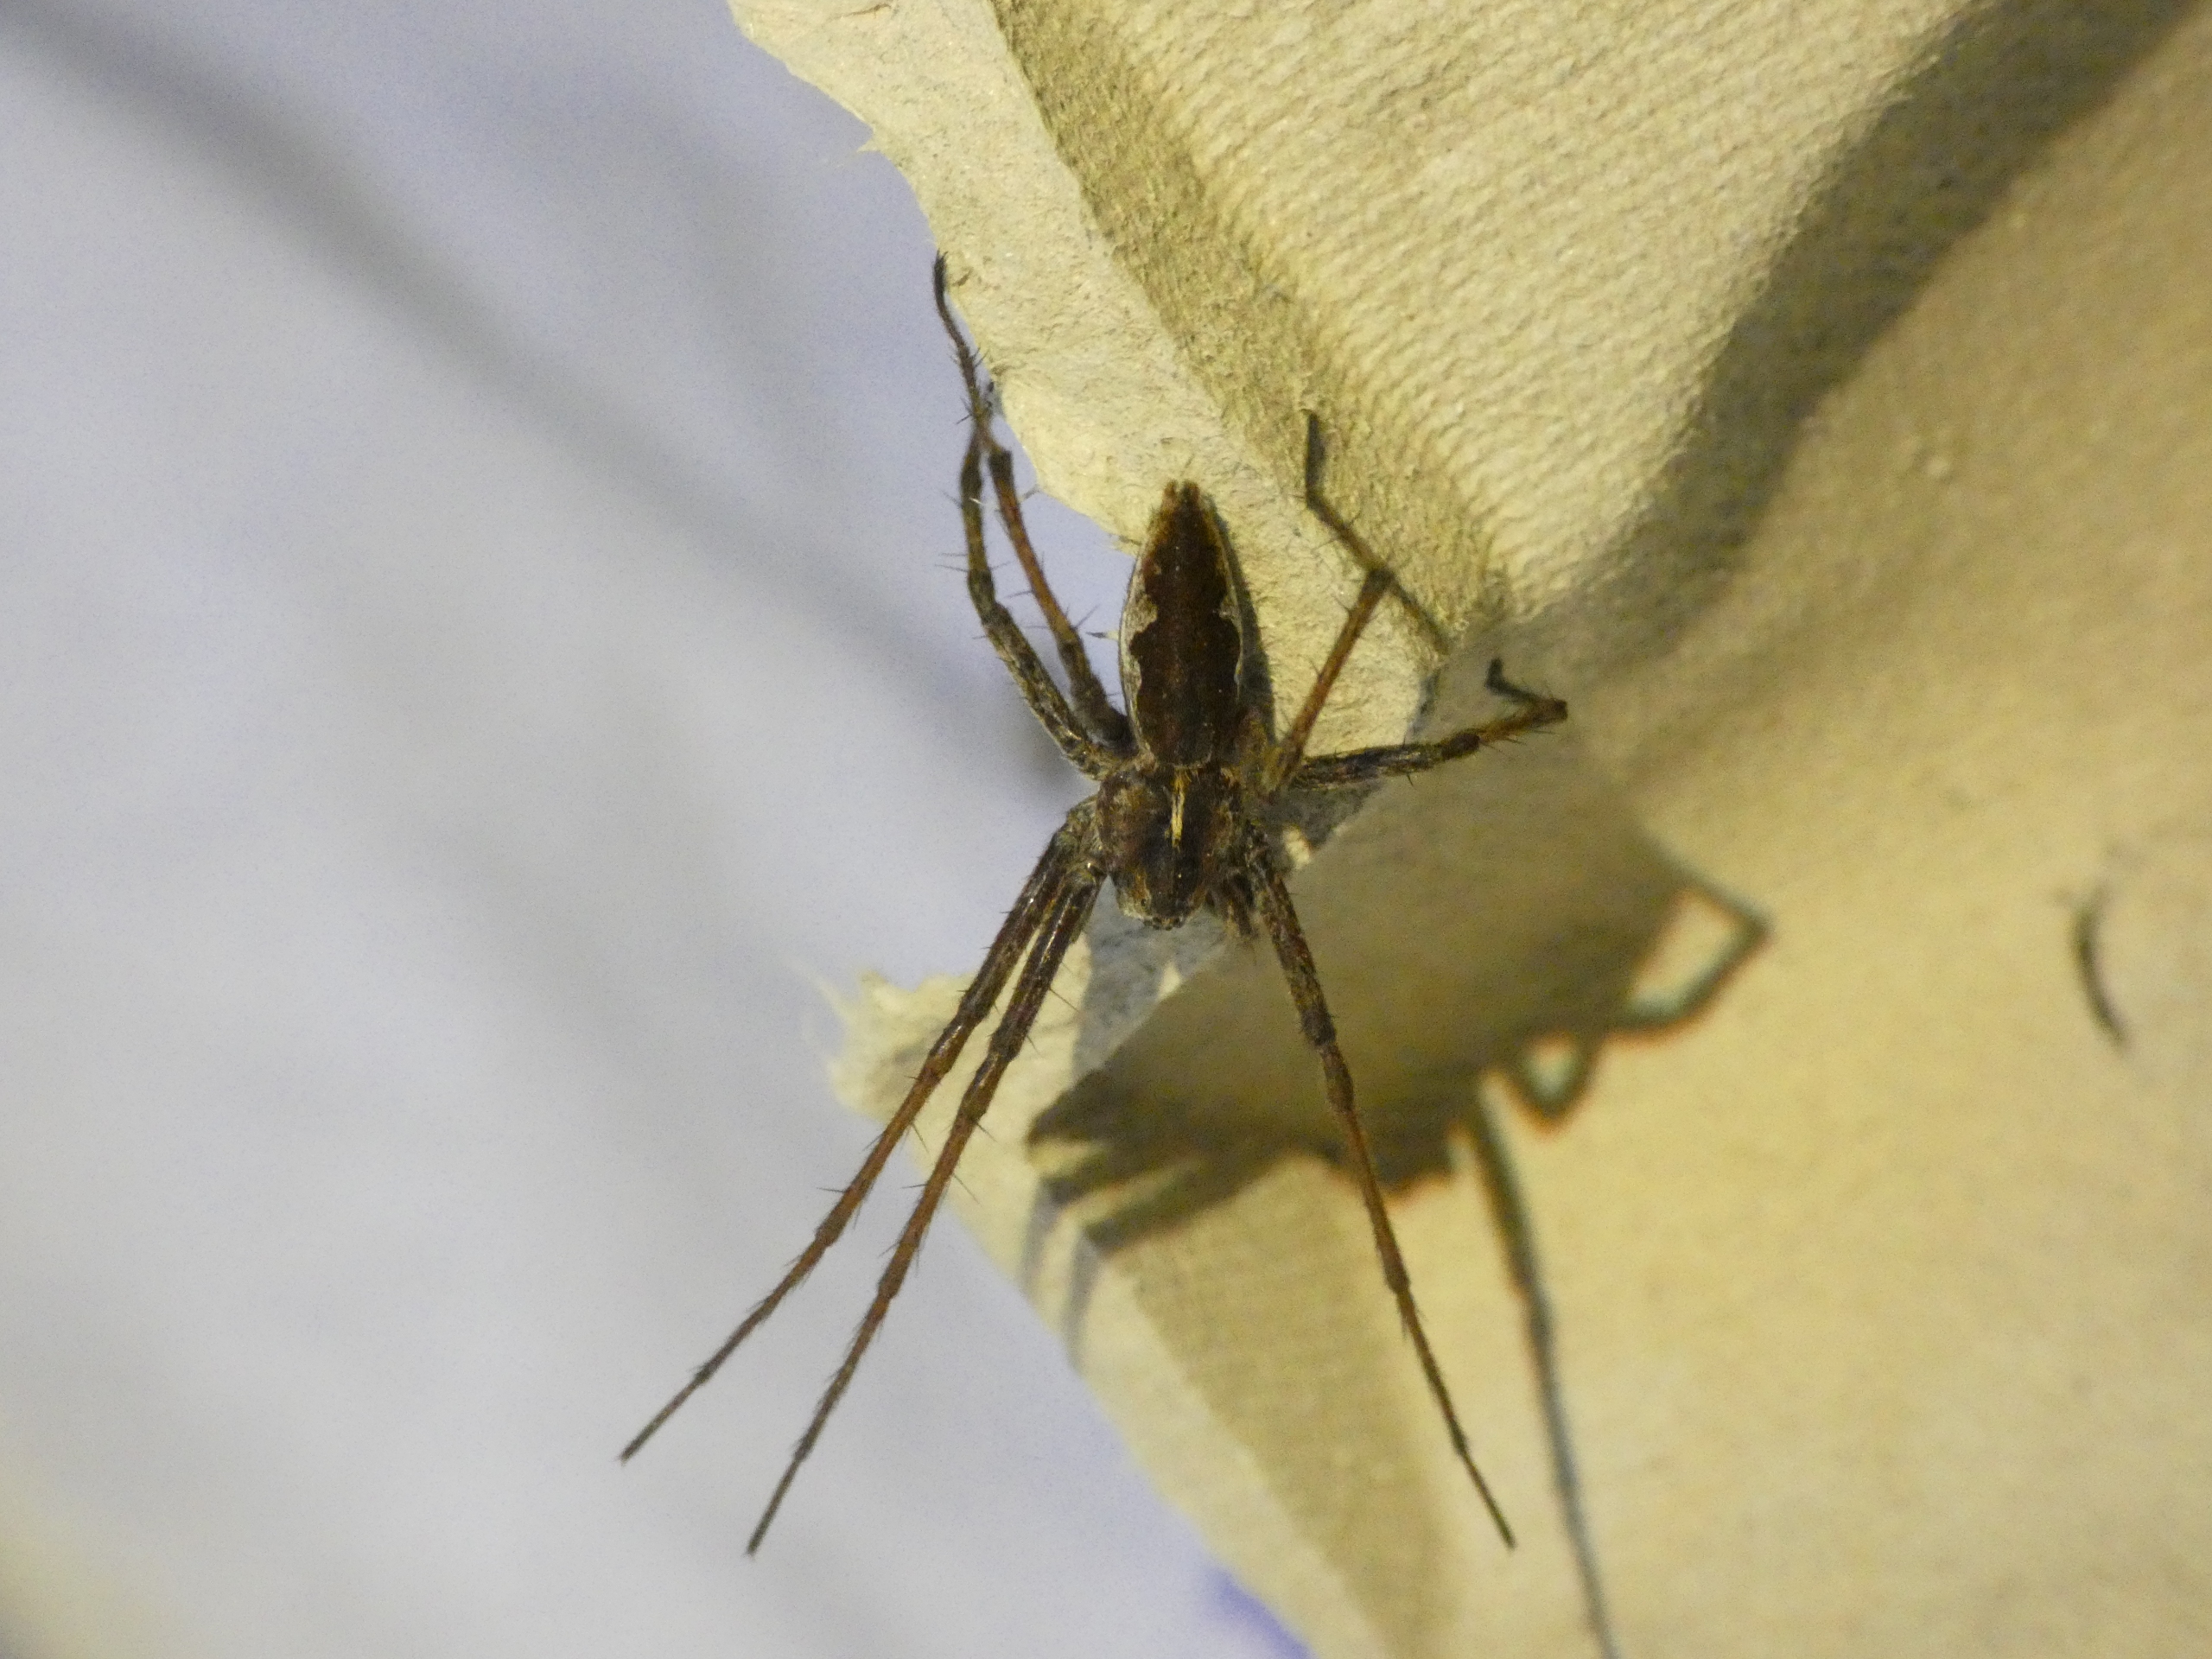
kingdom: Animalia
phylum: Arthropoda
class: Arachnida
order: Araneae
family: Pisauridae
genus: Pisaura
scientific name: Pisaura mirabilis
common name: Almindelig rovedderkop
